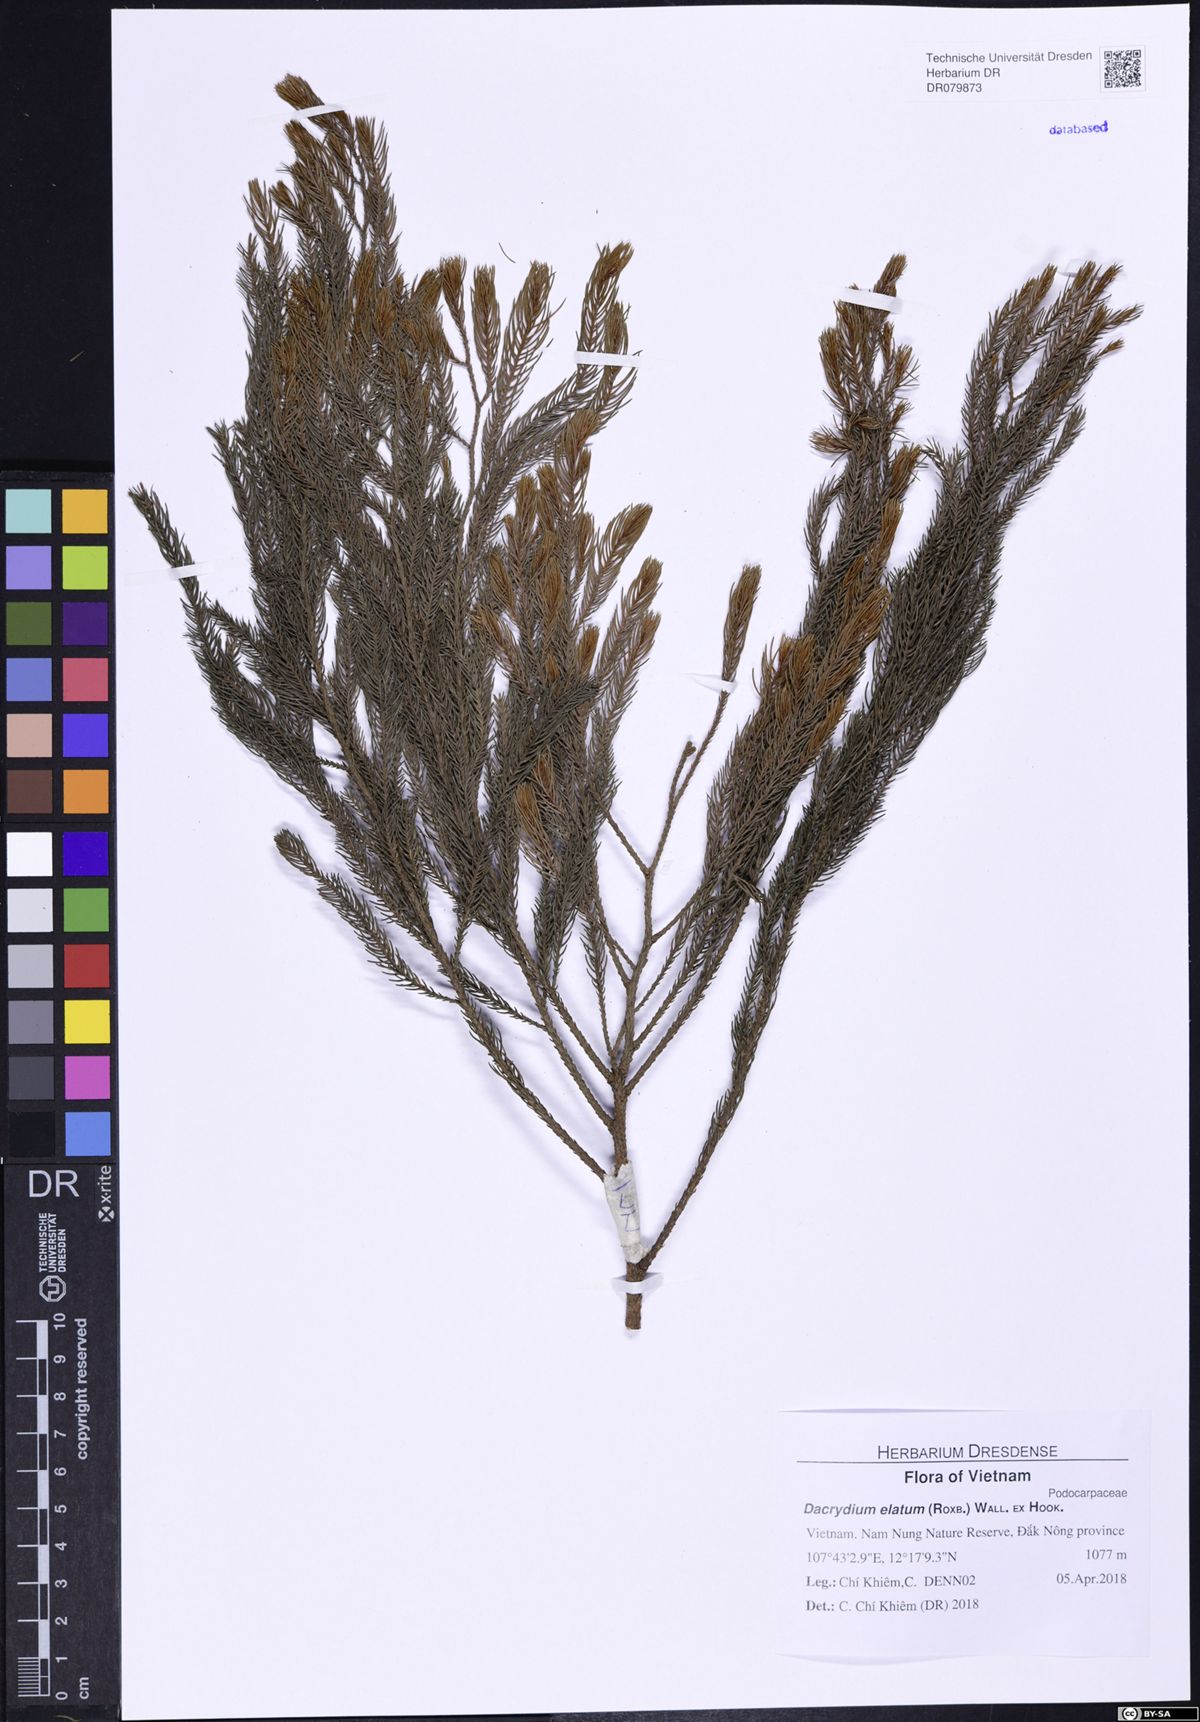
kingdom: Plantae
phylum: Tracheophyta
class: Pinopsida
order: Pinales
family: Podocarpaceae
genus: Dacrydium
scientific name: Dacrydium elatum
